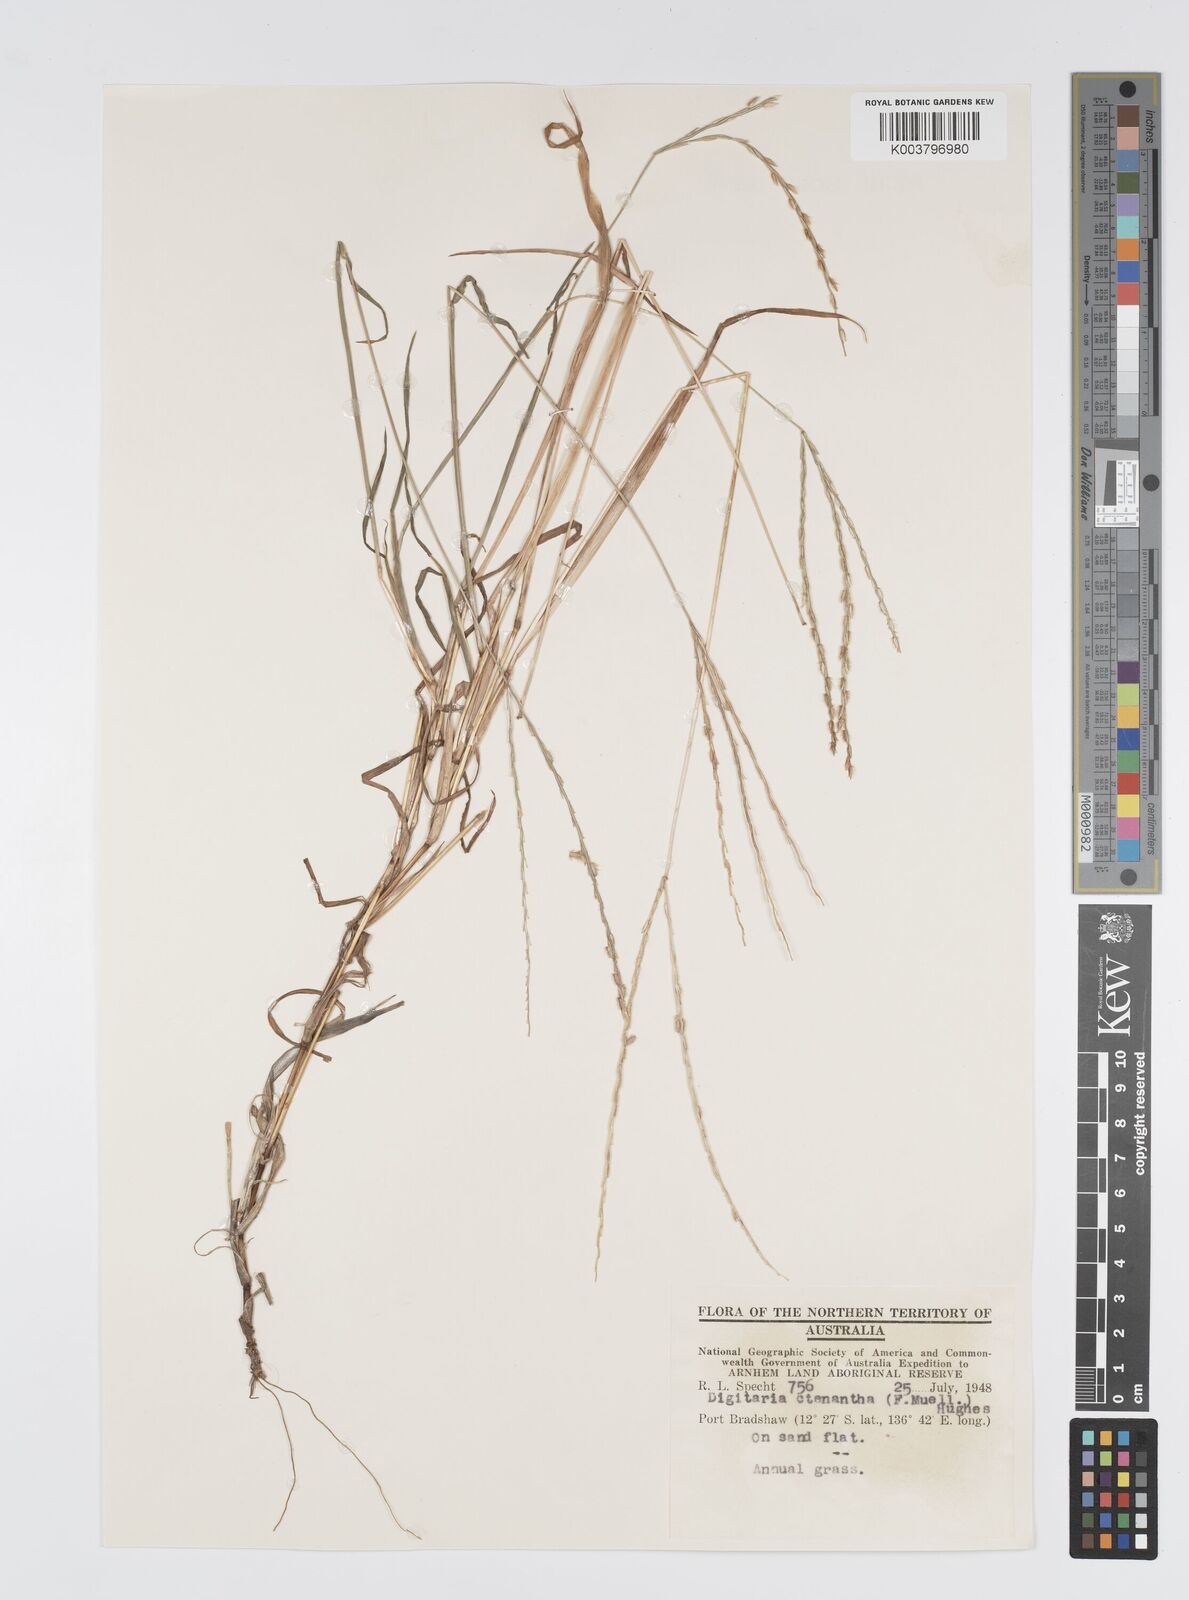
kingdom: Plantae
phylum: Tracheophyta
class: Liliopsida
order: Poales
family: Poaceae
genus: Digitaria
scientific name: Digitaria ctenantha
